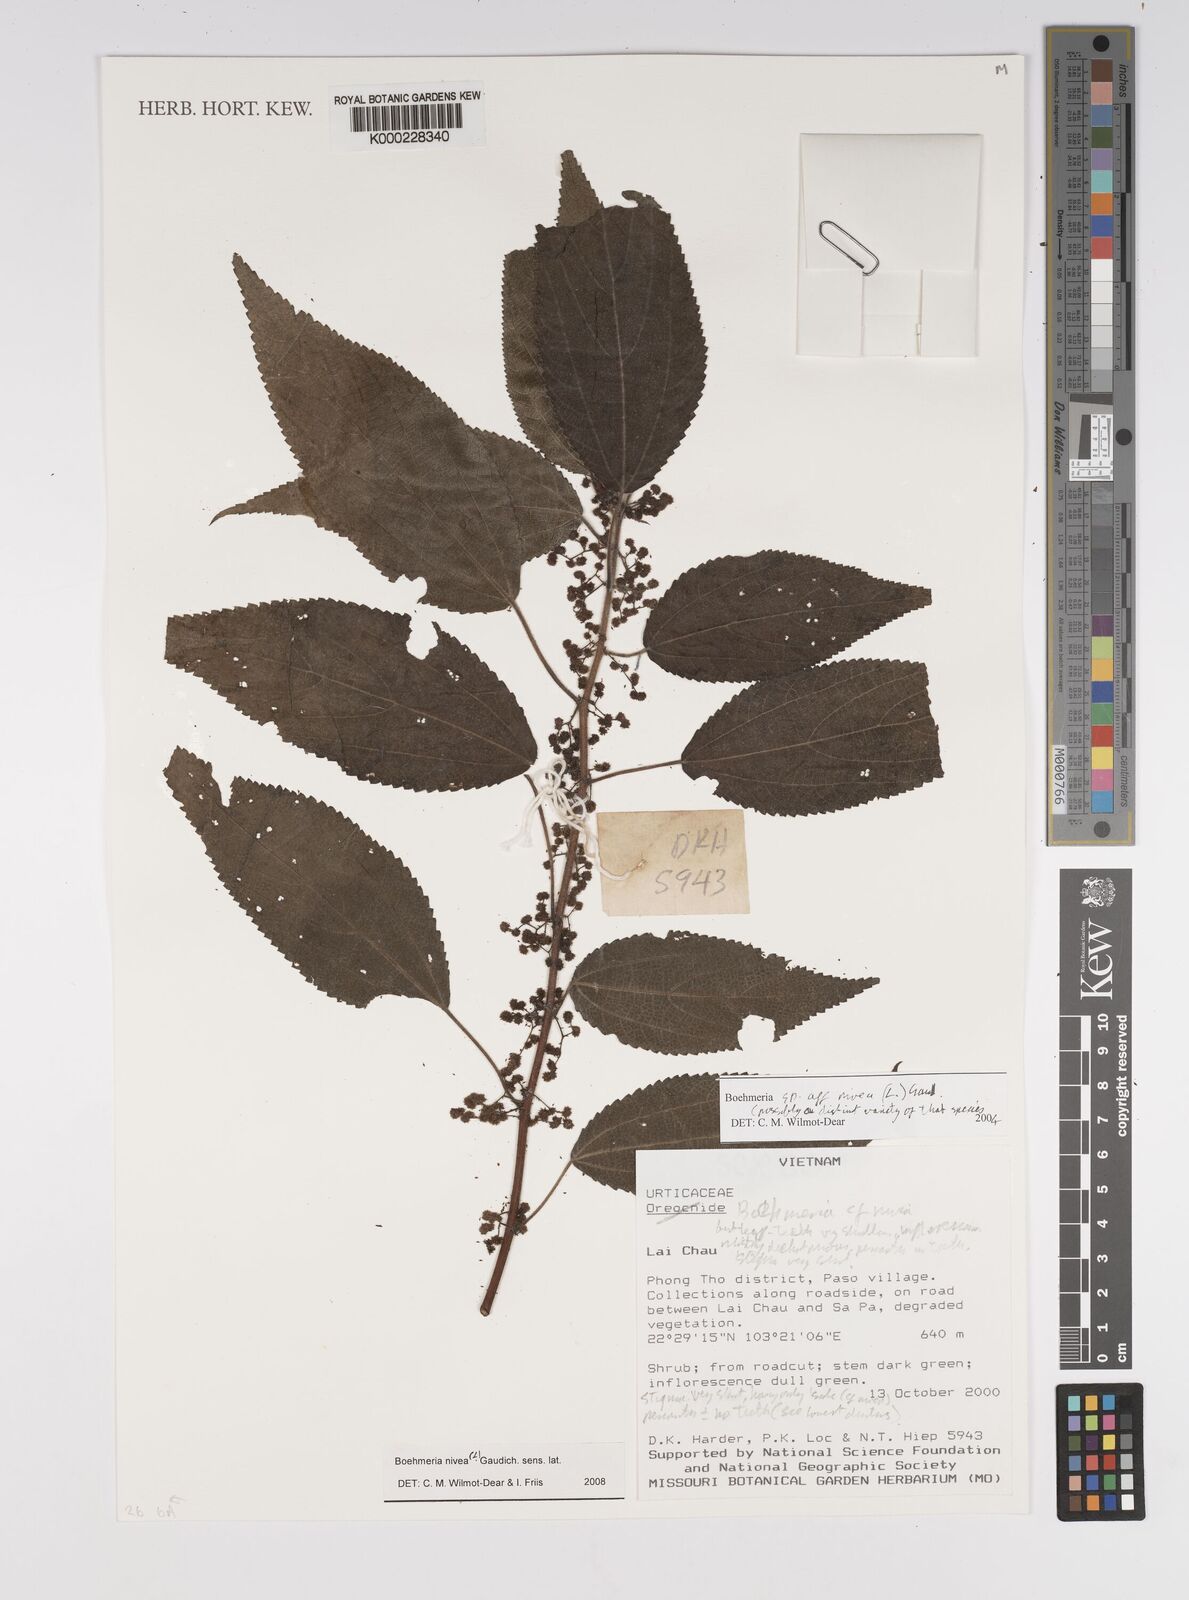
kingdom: Plantae
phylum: Tracheophyta
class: Magnoliopsida
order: Rosales
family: Urticaceae
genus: Boehmeria
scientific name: Boehmeria nivea
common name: Ramie chinese grass
